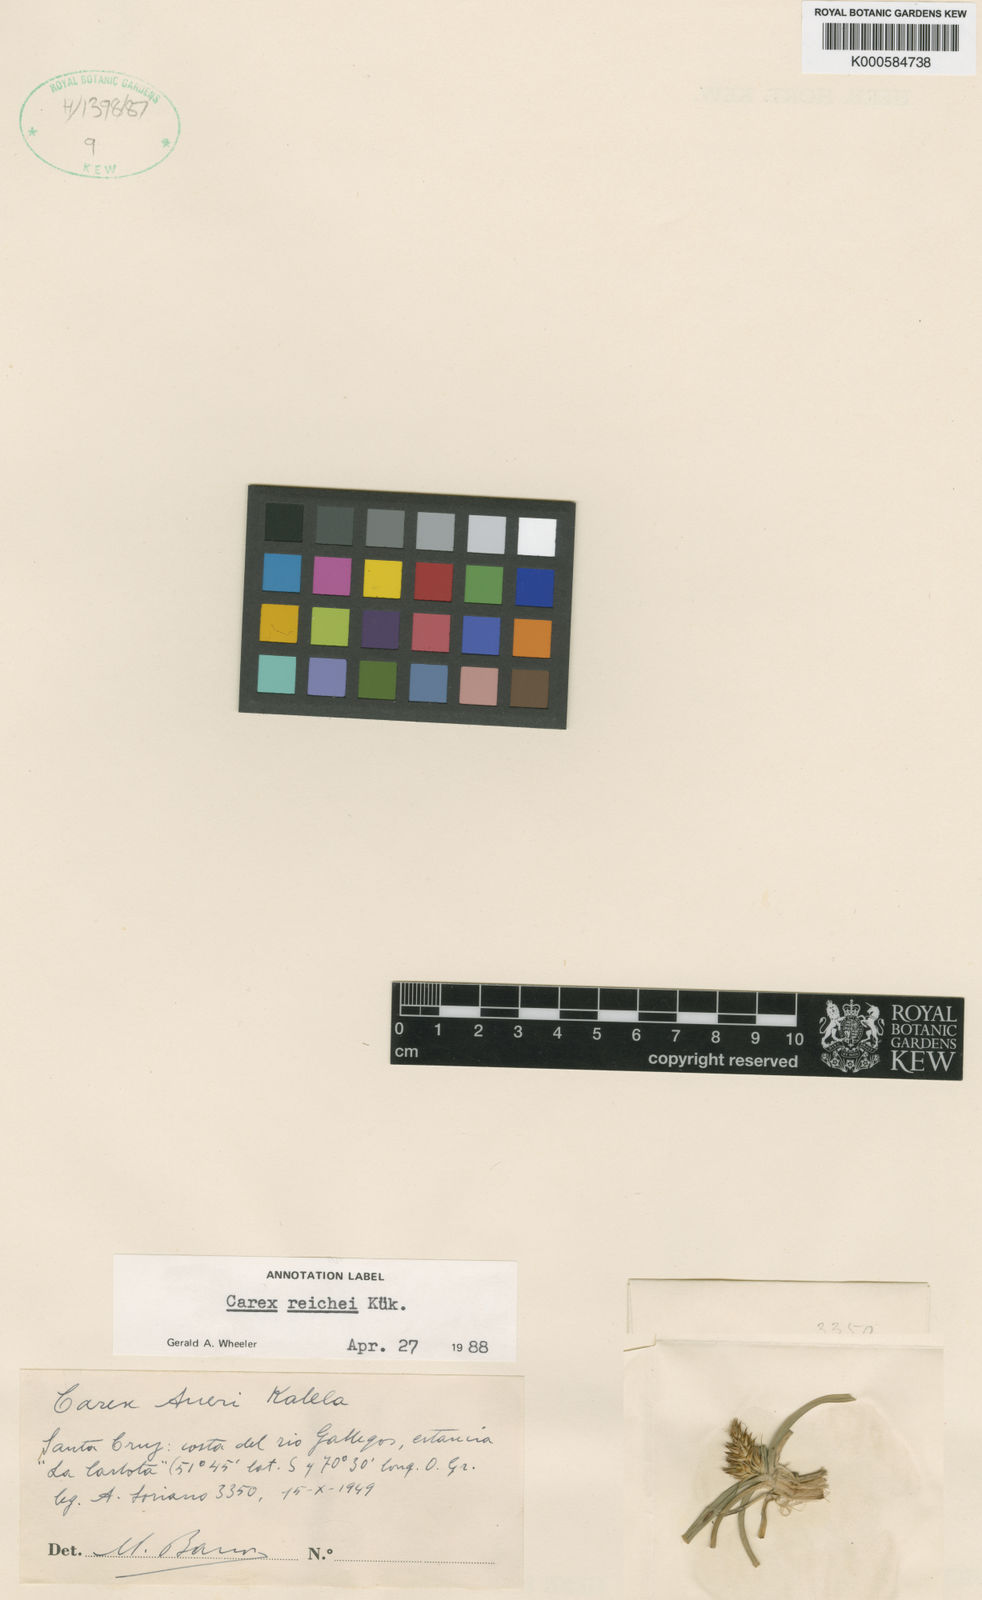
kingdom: Plantae
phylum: Tracheophyta
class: Liliopsida
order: Poales
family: Cyperaceae
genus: Carex
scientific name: Carex
